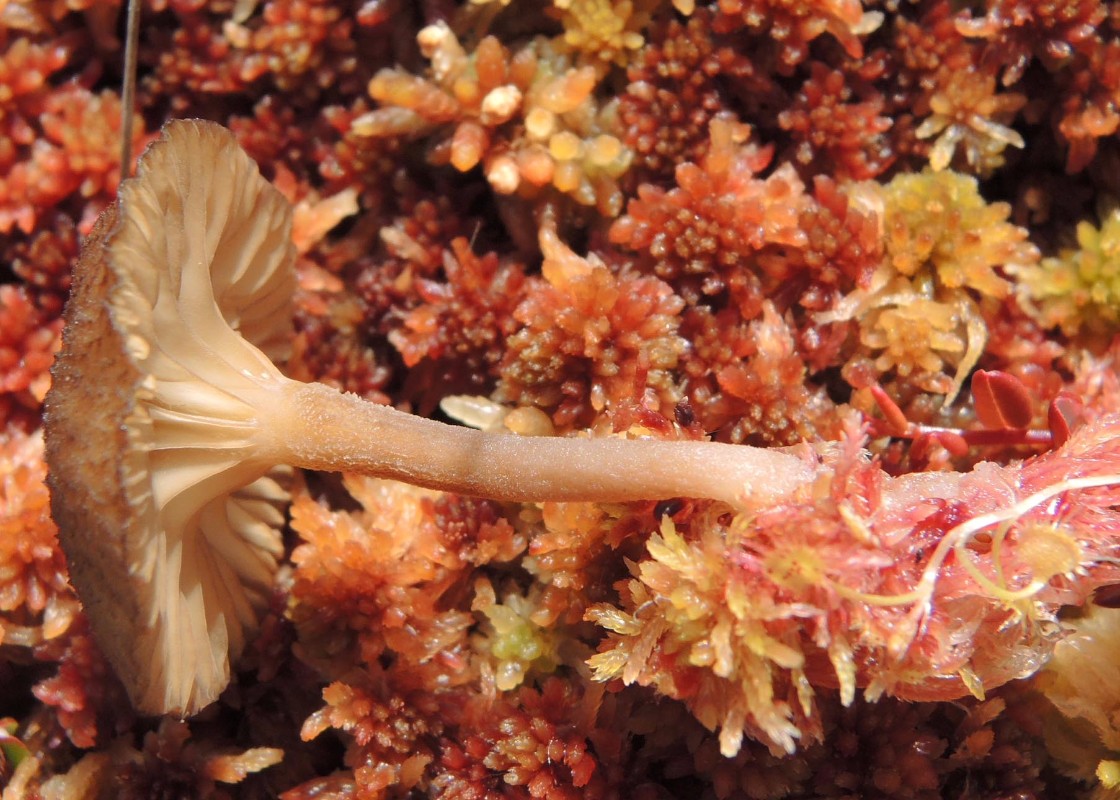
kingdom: Fungi
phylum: Basidiomycota
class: Agaricomycetes
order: Agaricales
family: Hygrophoraceae
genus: Arrhenia
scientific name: Arrhenia gerardiana
